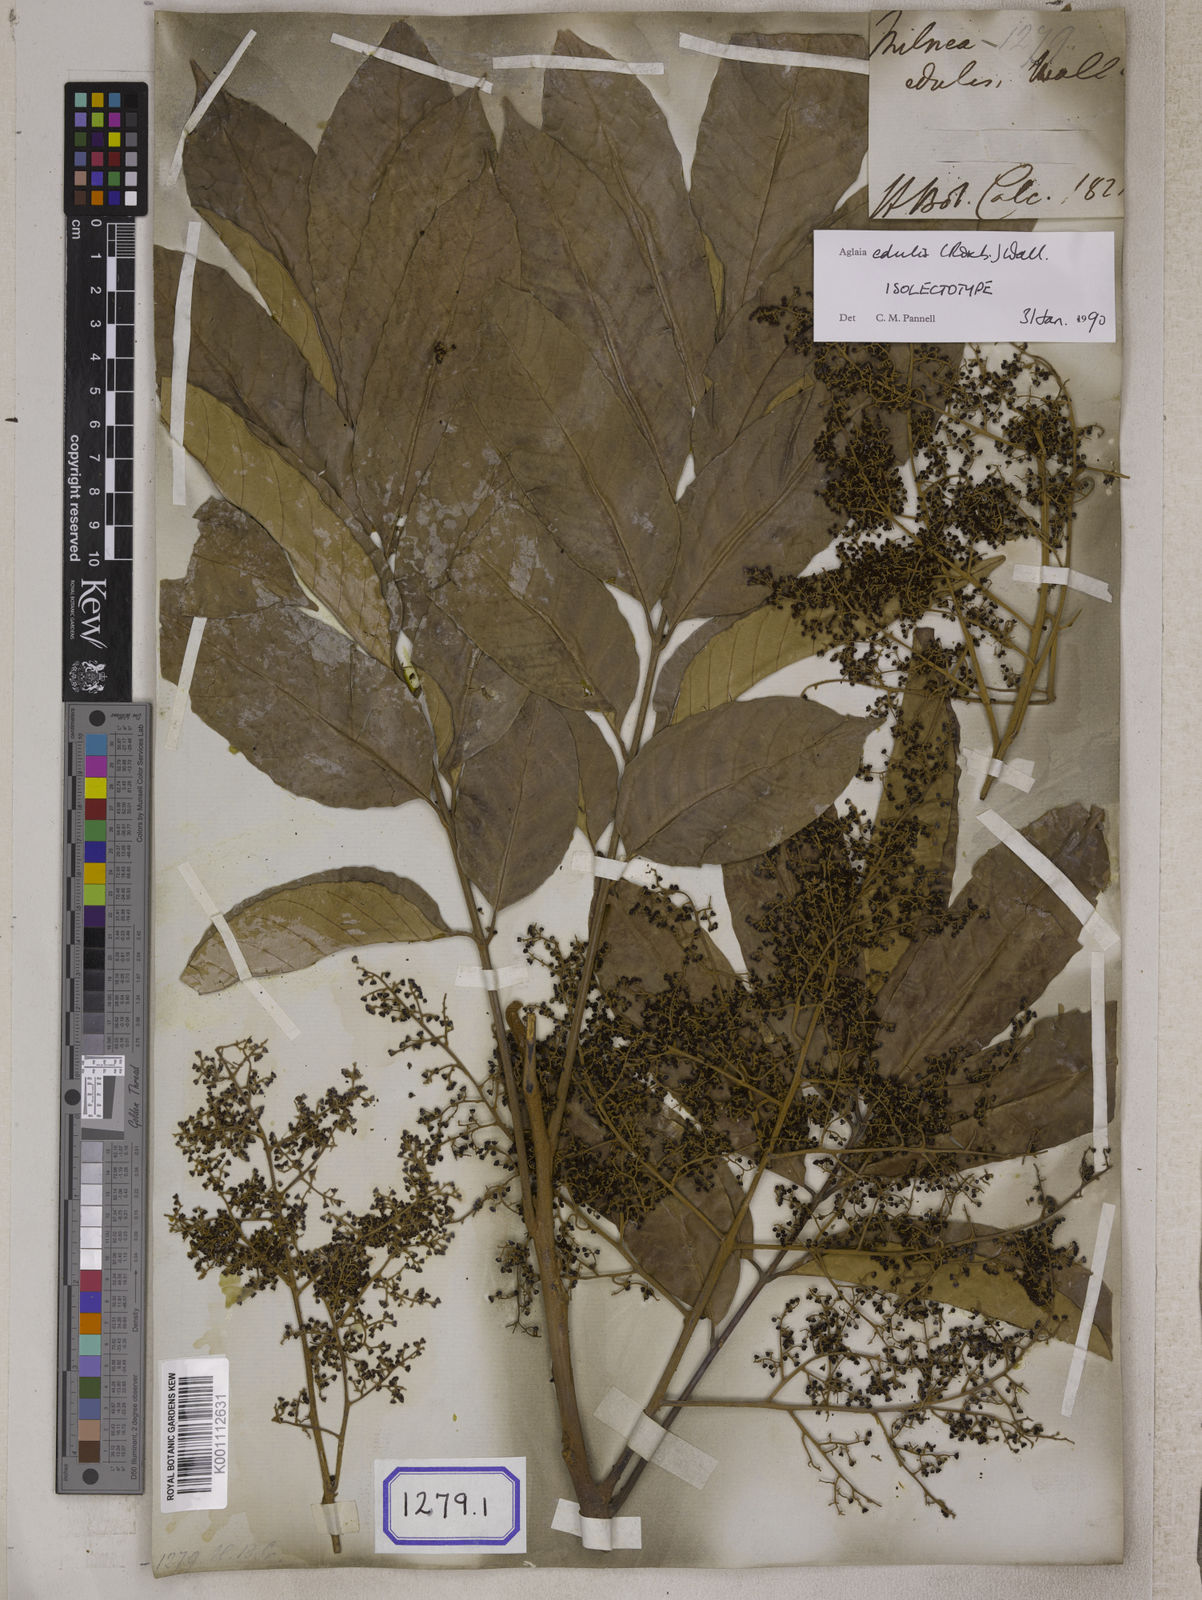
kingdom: Plantae
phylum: Tracheophyta
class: Magnoliopsida
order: Sapindales
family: Meliaceae
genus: Aglaia
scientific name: Aglaia edulis
